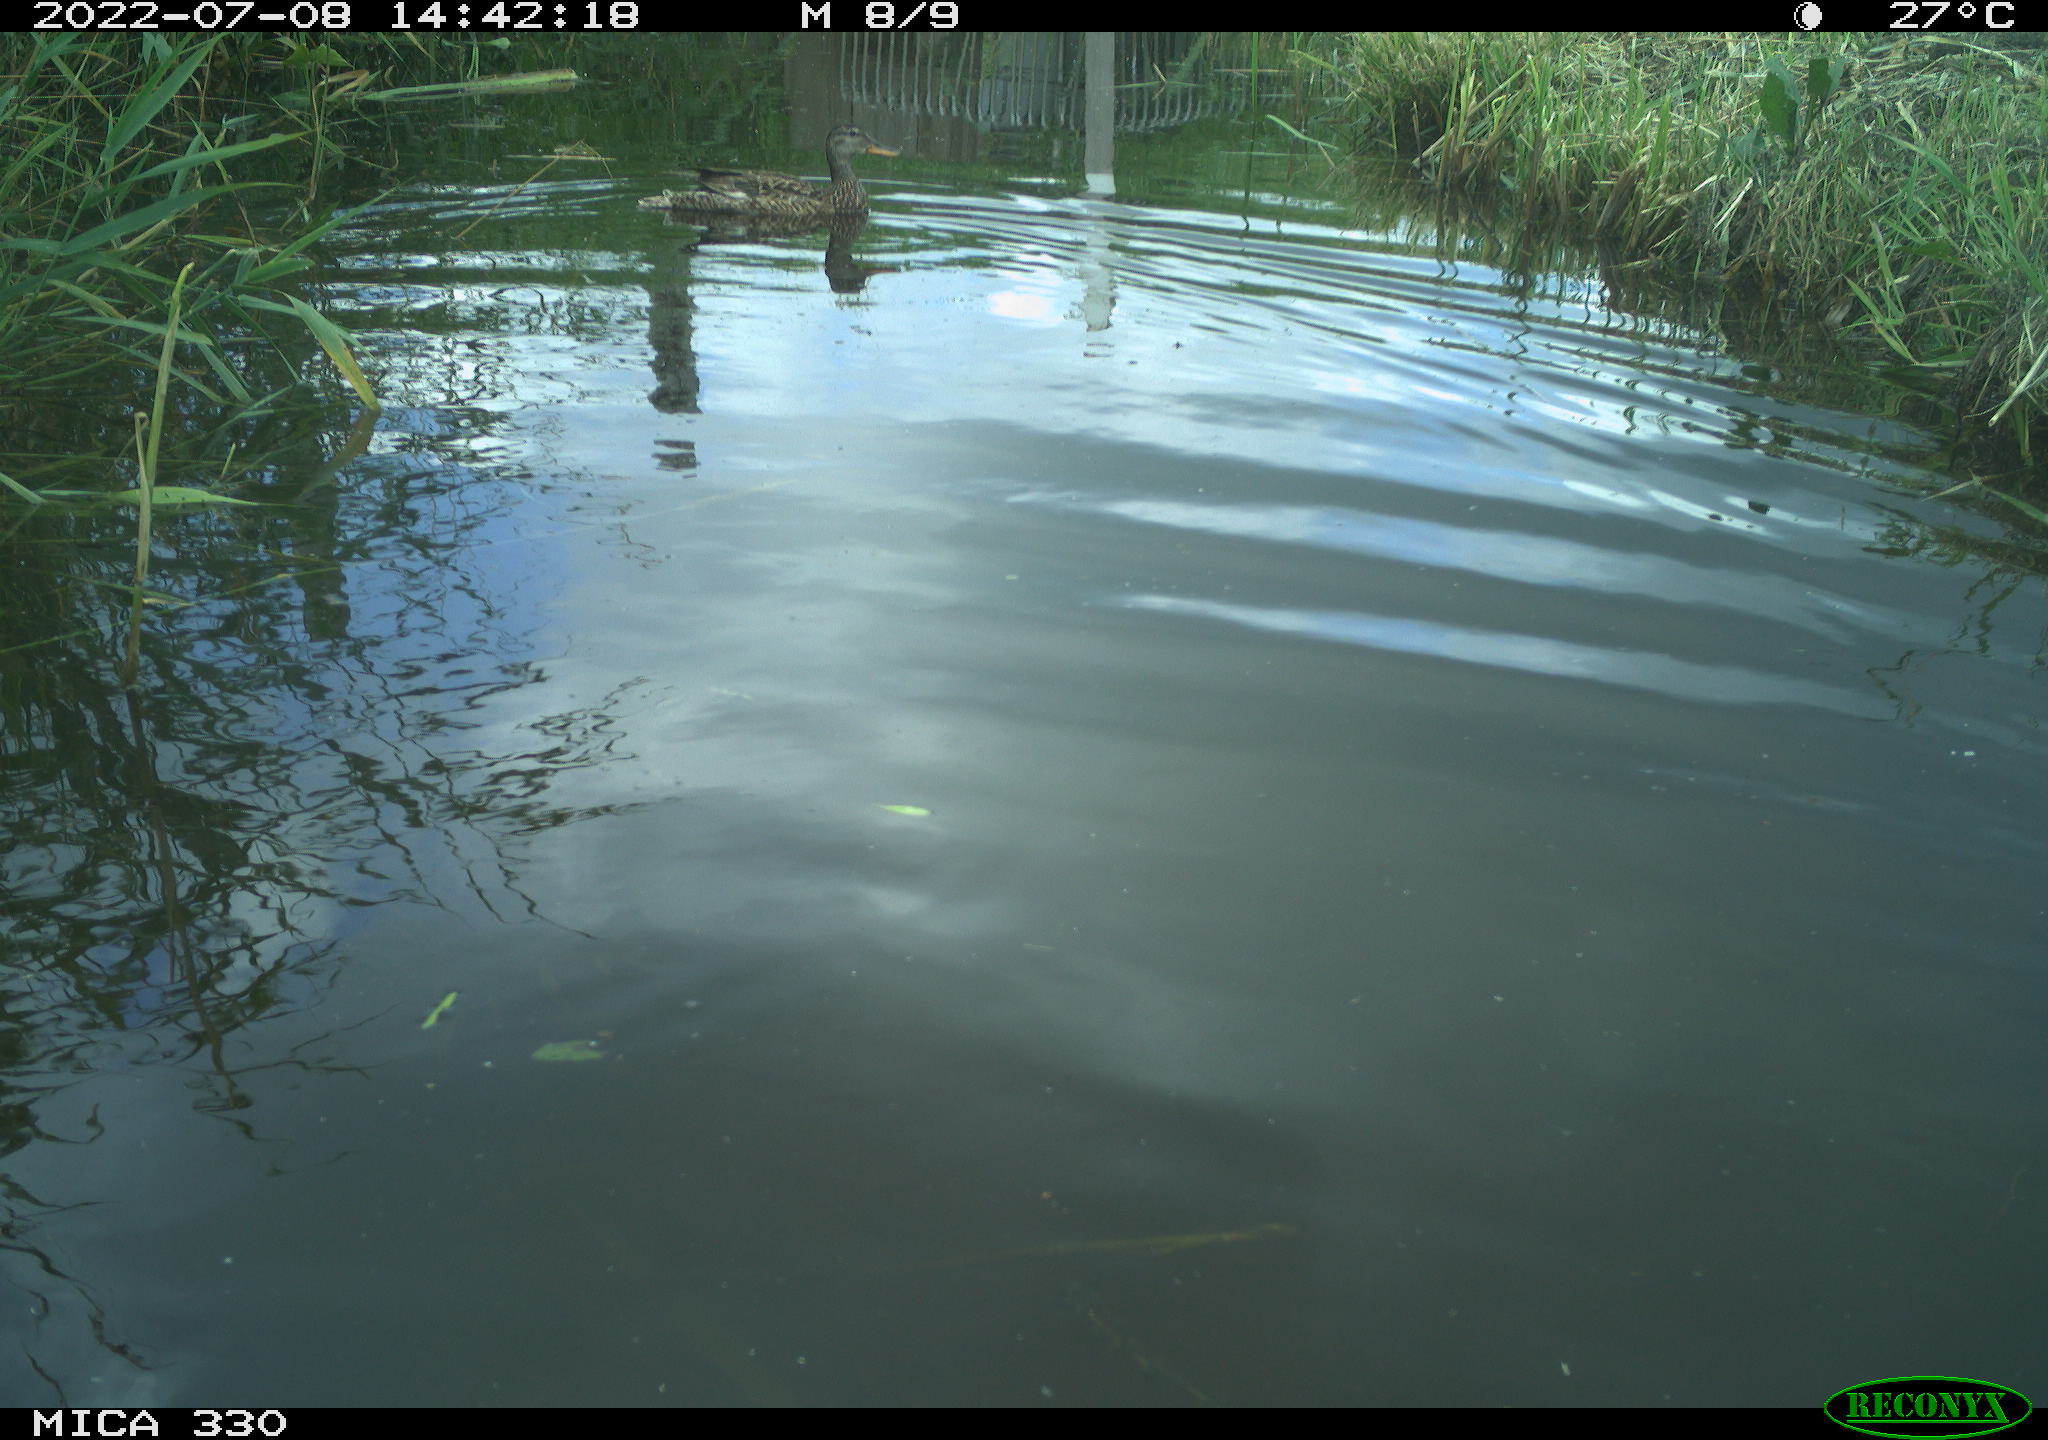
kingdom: Animalia
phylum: Chordata
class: Aves
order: Anseriformes
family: Anatidae
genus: Mareca
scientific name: Mareca strepera
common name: Gadwall
